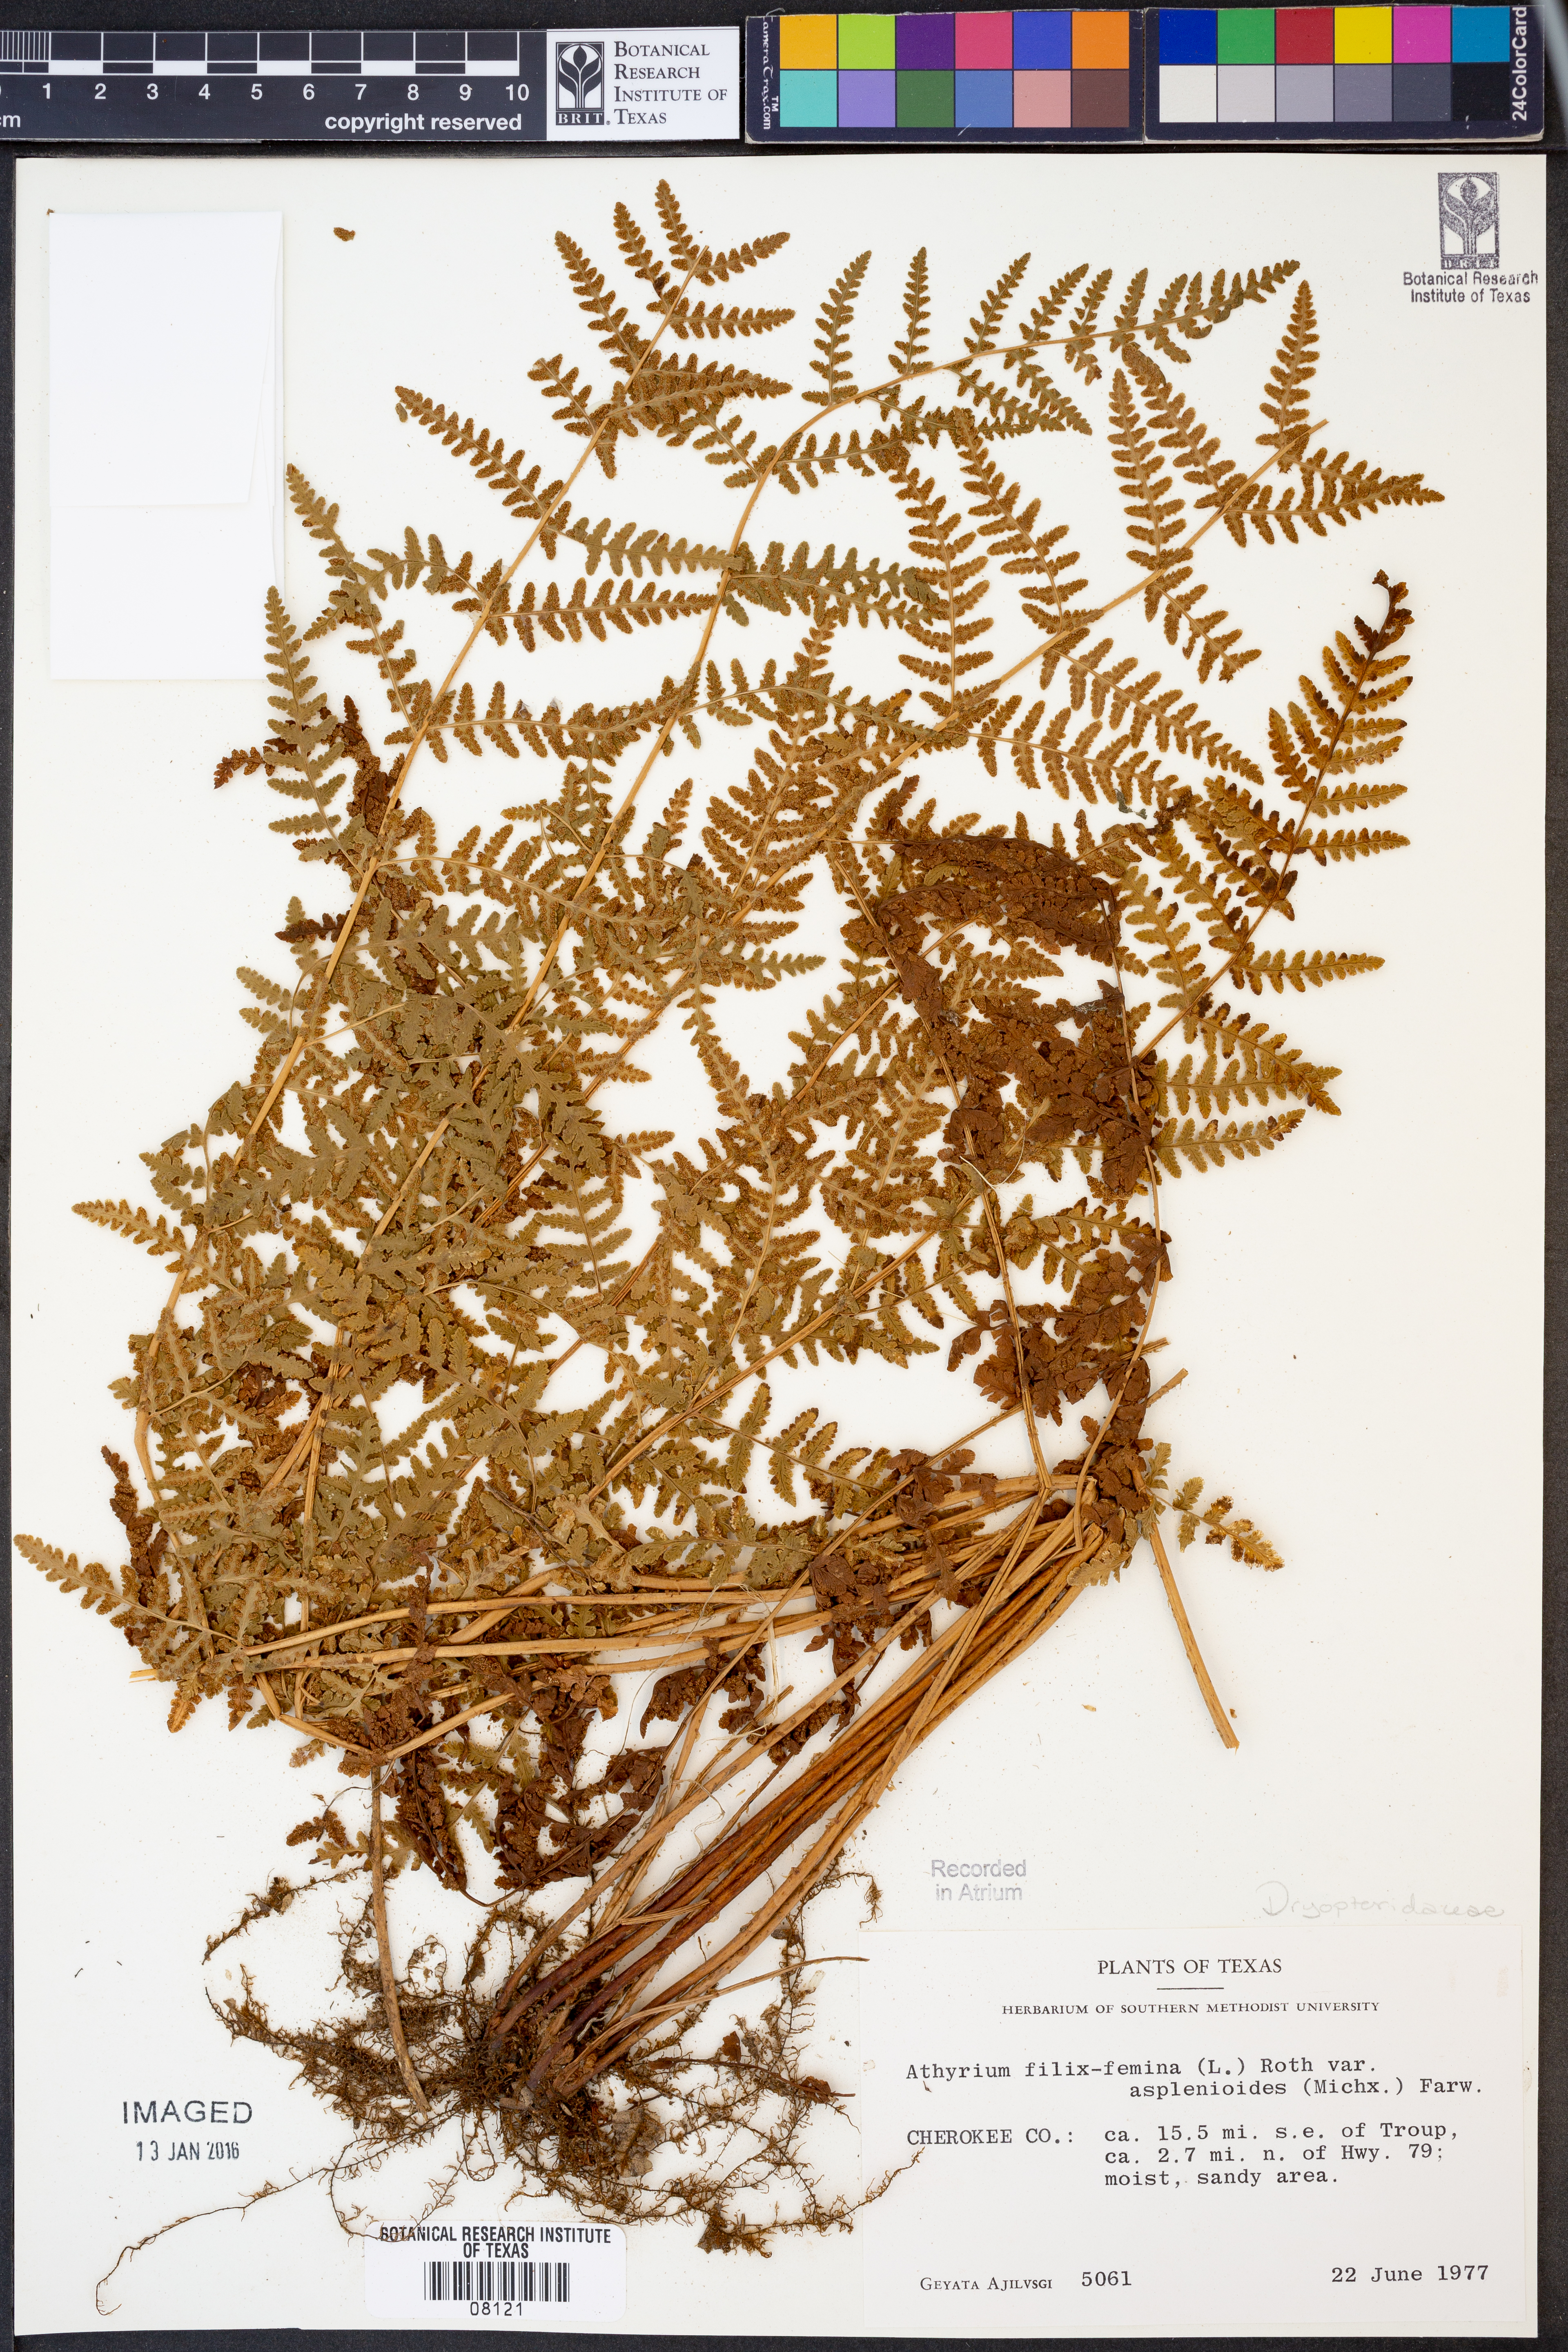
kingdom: Plantae
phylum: Tracheophyta
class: Polypodiopsida
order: Polypodiales
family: Athyriaceae
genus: Athyrium
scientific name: Athyrium asplenioides
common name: Southern lady fern
